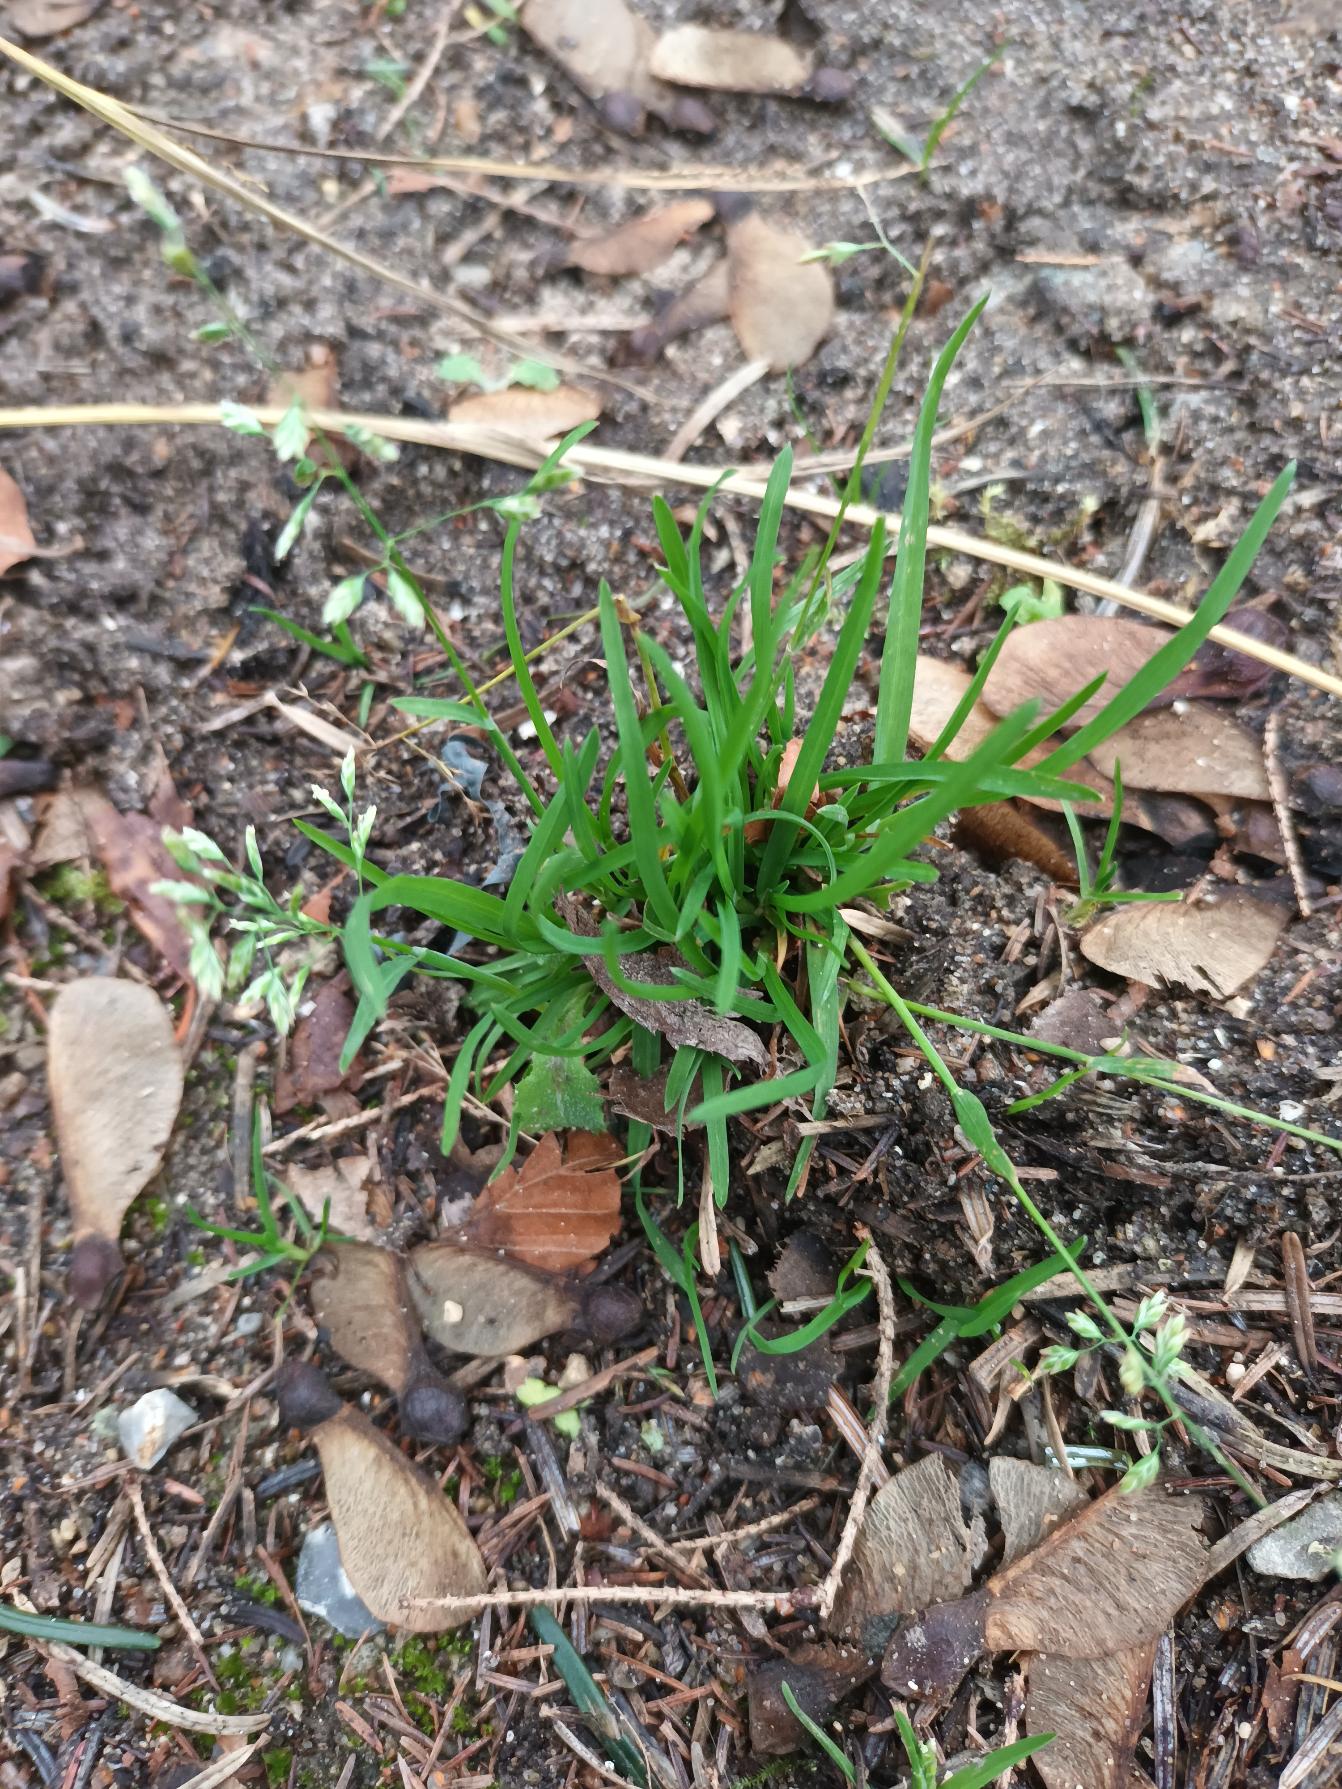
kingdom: Plantae
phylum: Tracheophyta
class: Liliopsida
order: Poales
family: Poaceae
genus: Poa
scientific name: Poa annua
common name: Enårig rapgræs
